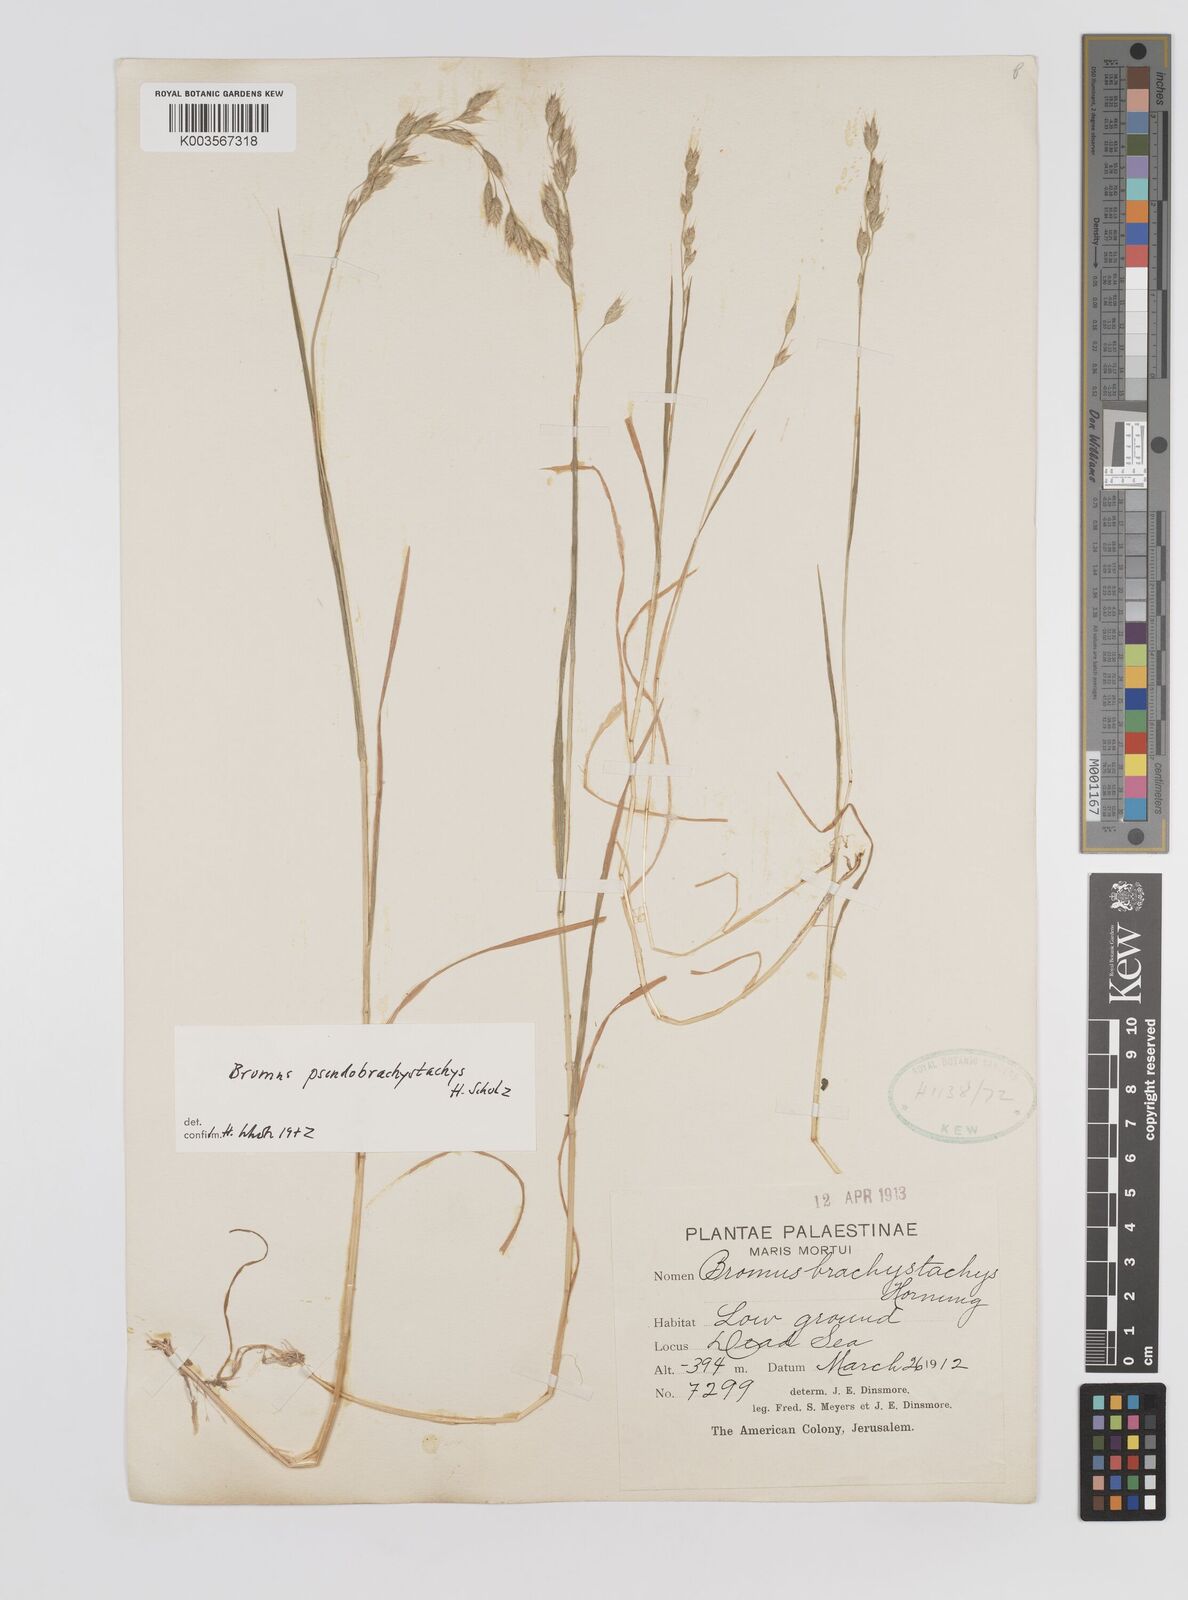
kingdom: Plantae
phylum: Tracheophyta
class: Liliopsida
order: Poales
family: Poaceae
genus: Bromus
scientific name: Bromus pseudobrachystachys
